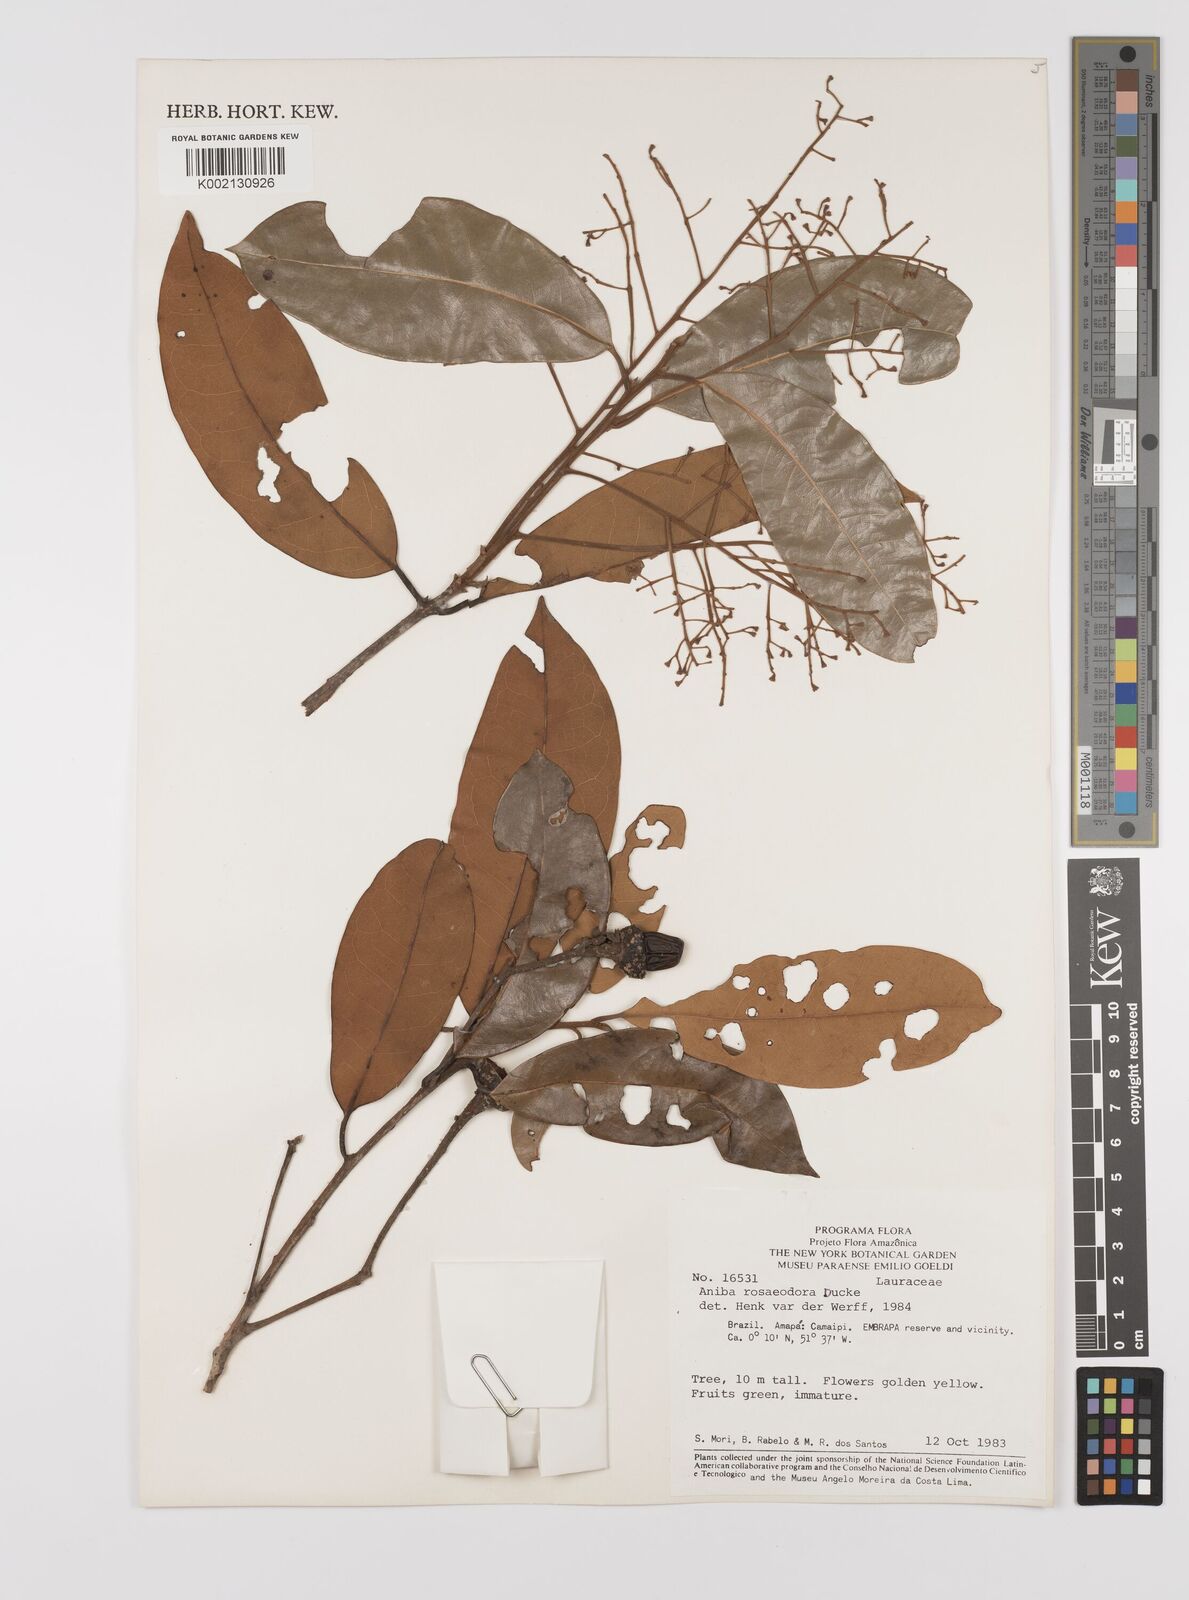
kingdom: Plantae
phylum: Tracheophyta
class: Magnoliopsida
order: Laurales
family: Lauraceae
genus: Aniba
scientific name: Aniba rosodora
